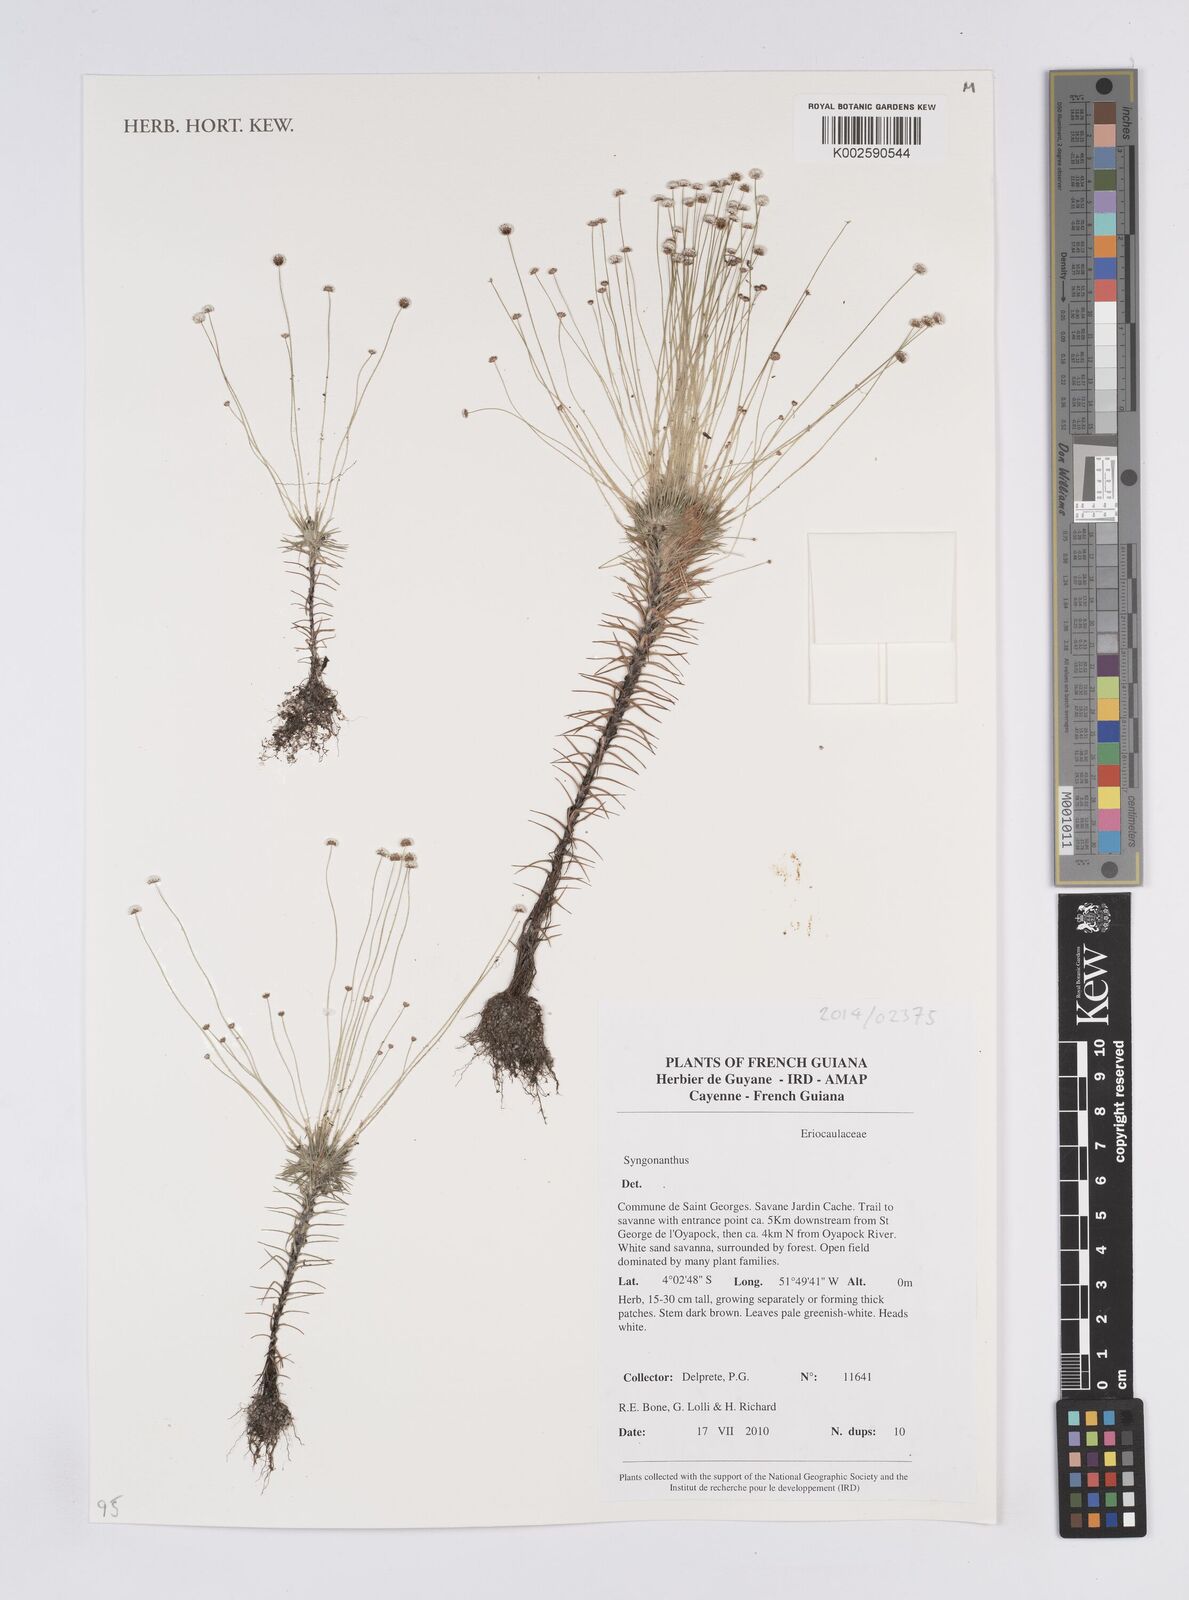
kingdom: Plantae
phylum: Tracheophyta
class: Liliopsida
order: Poales
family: Eriocaulaceae
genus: Syngonanthus
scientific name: Syngonanthus
